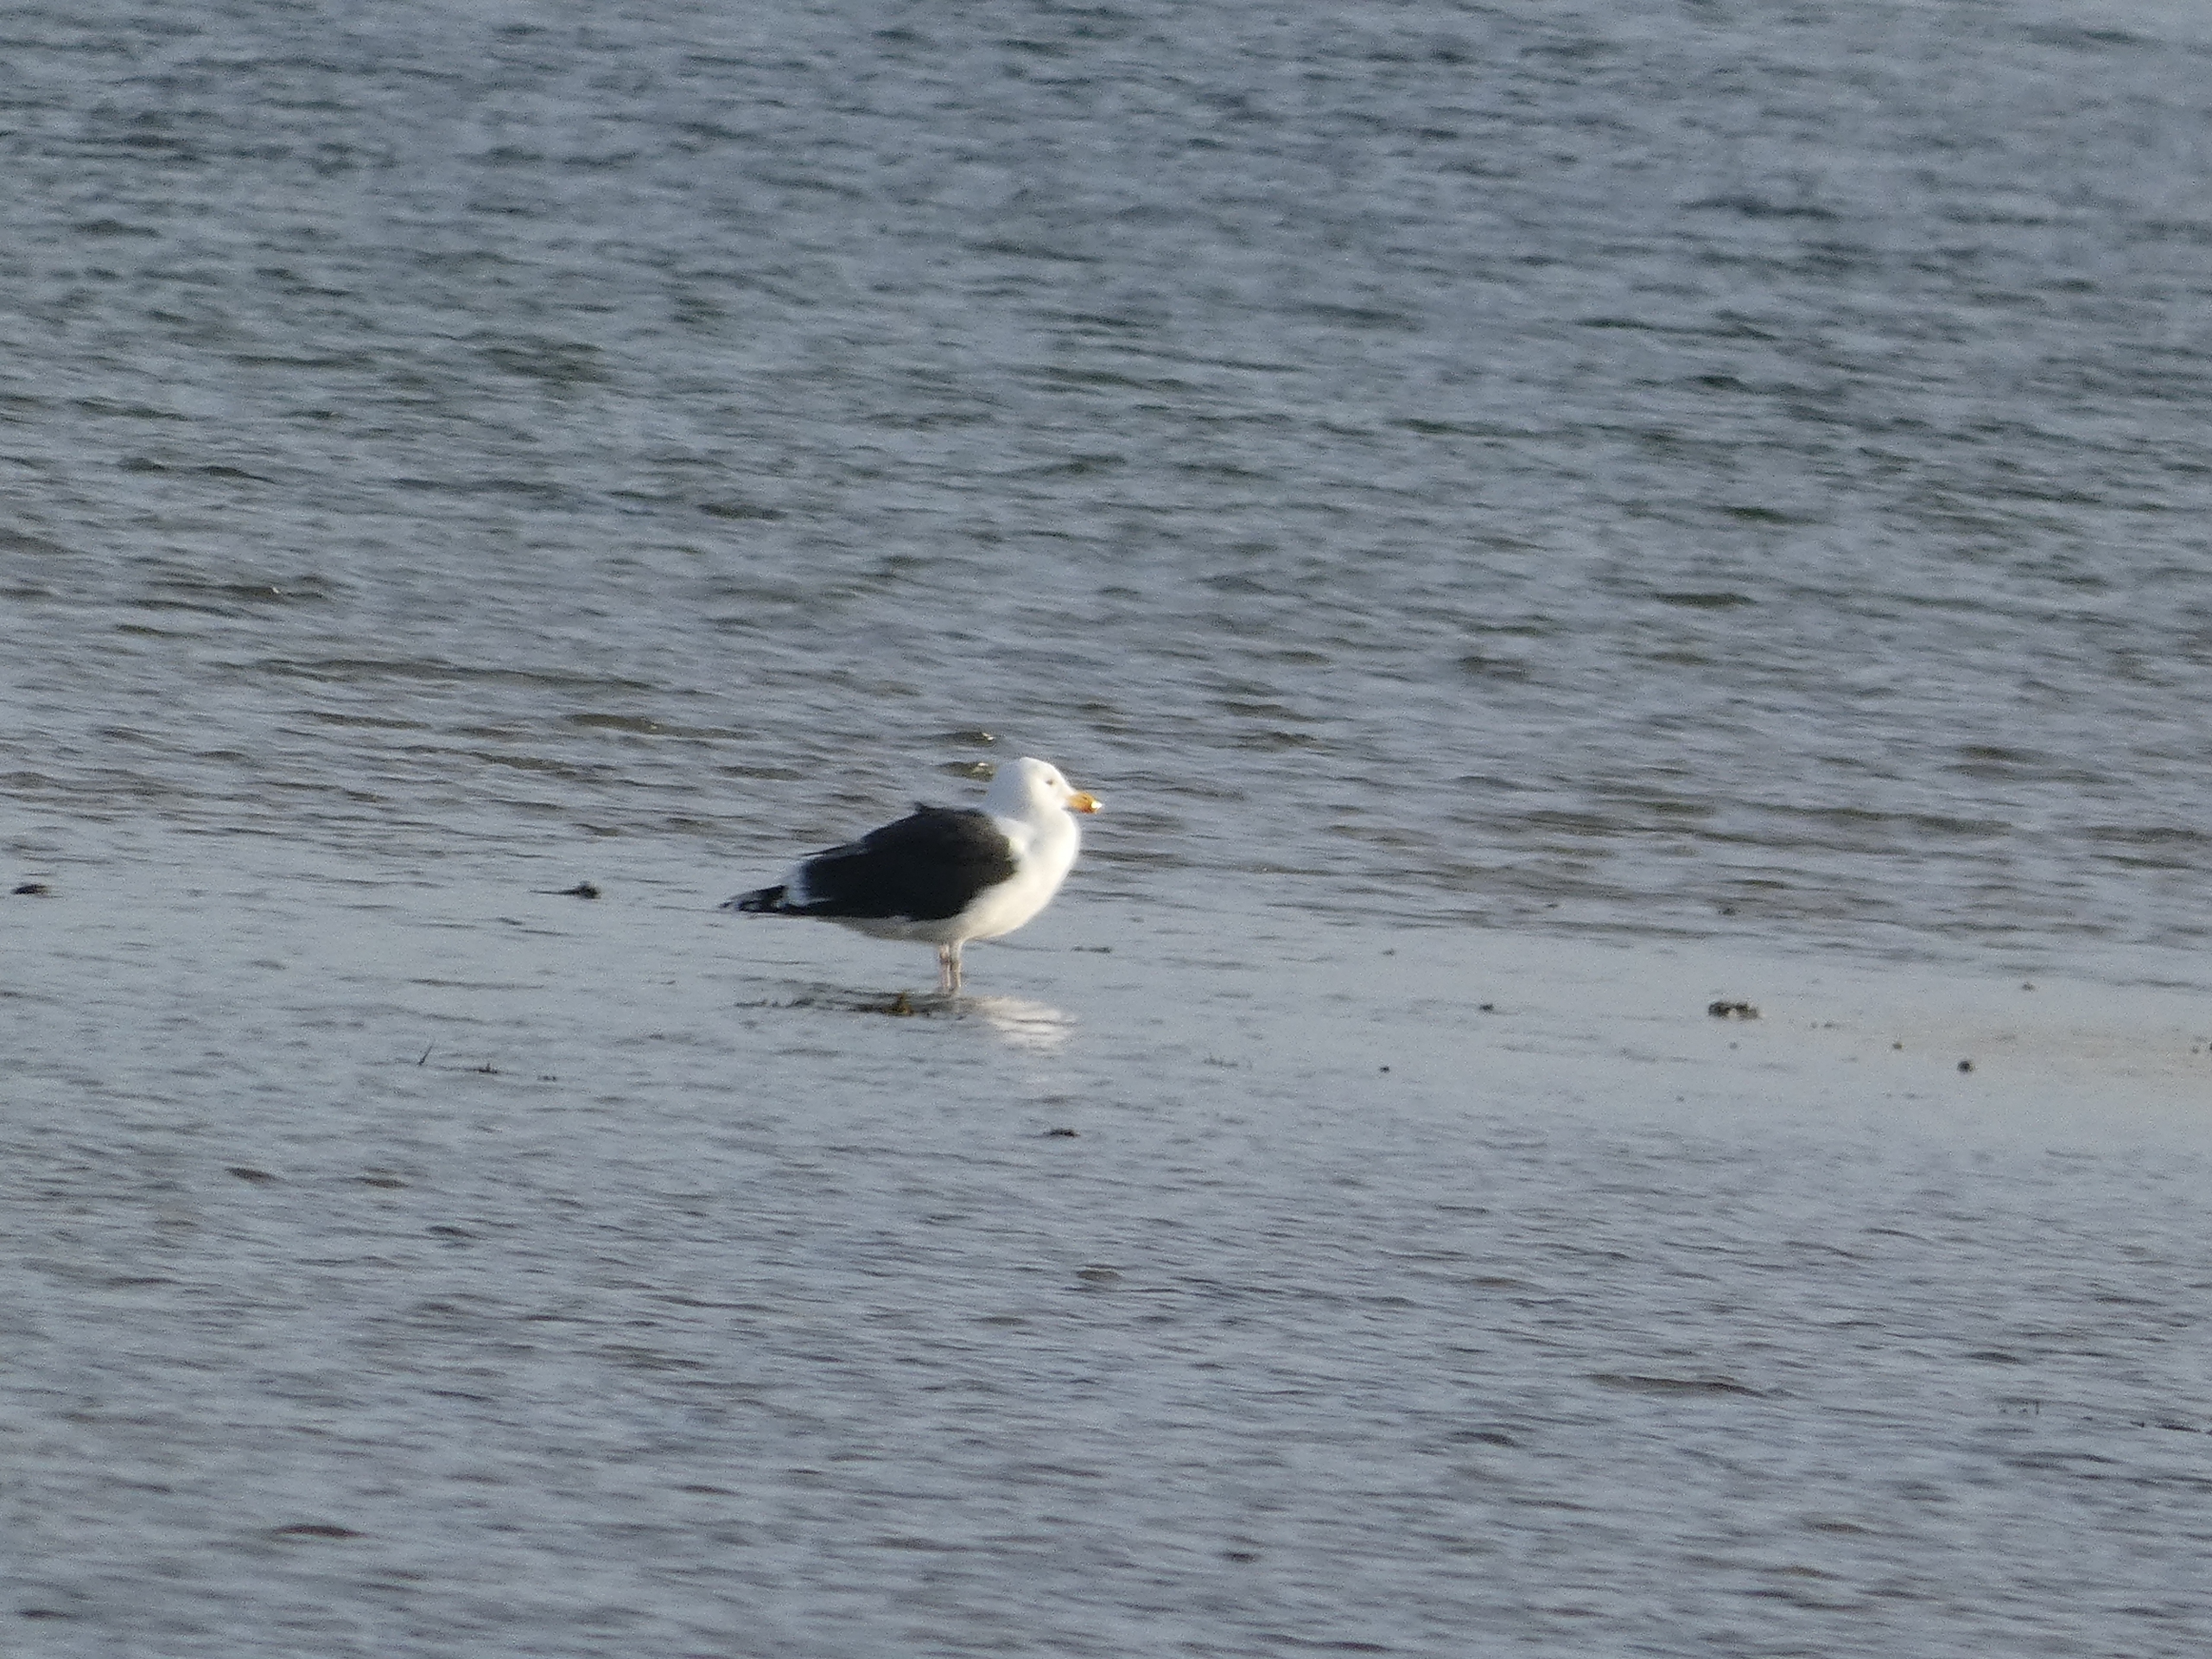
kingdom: Animalia
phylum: Chordata
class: Aves
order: Charadriiformes
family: Laridae
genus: Larus
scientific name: Larus marinus
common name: Svartbag
